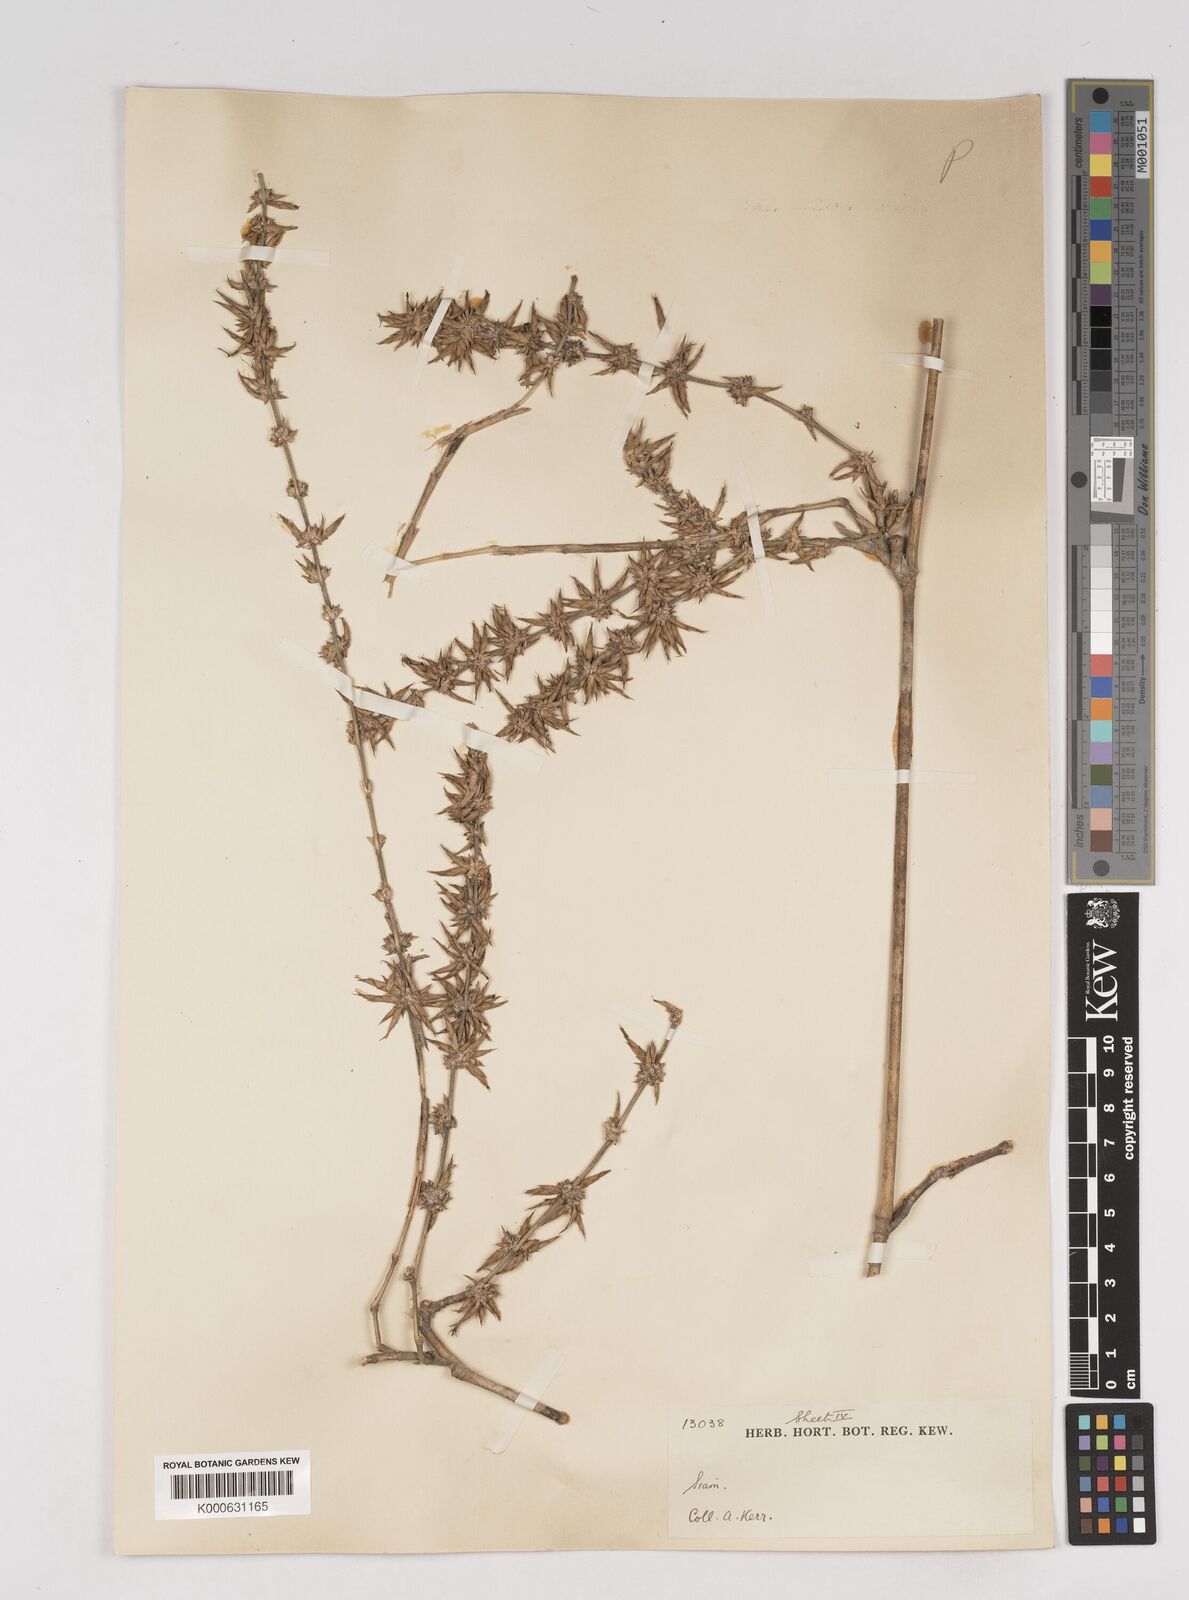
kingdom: Plantae
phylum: Tracheophyta
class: Liliopsida
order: Poales
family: Poaceae
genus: Gigantochloa
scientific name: Gigantochloa
